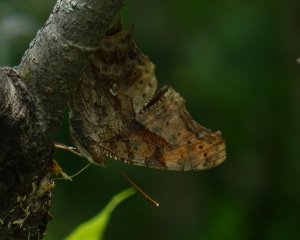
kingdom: Animalia
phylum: Arthropoda
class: Insecta
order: Lepidoptera
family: Nymphalidae
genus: Polygonia
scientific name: Polygonia interrogationis
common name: Question Mark
